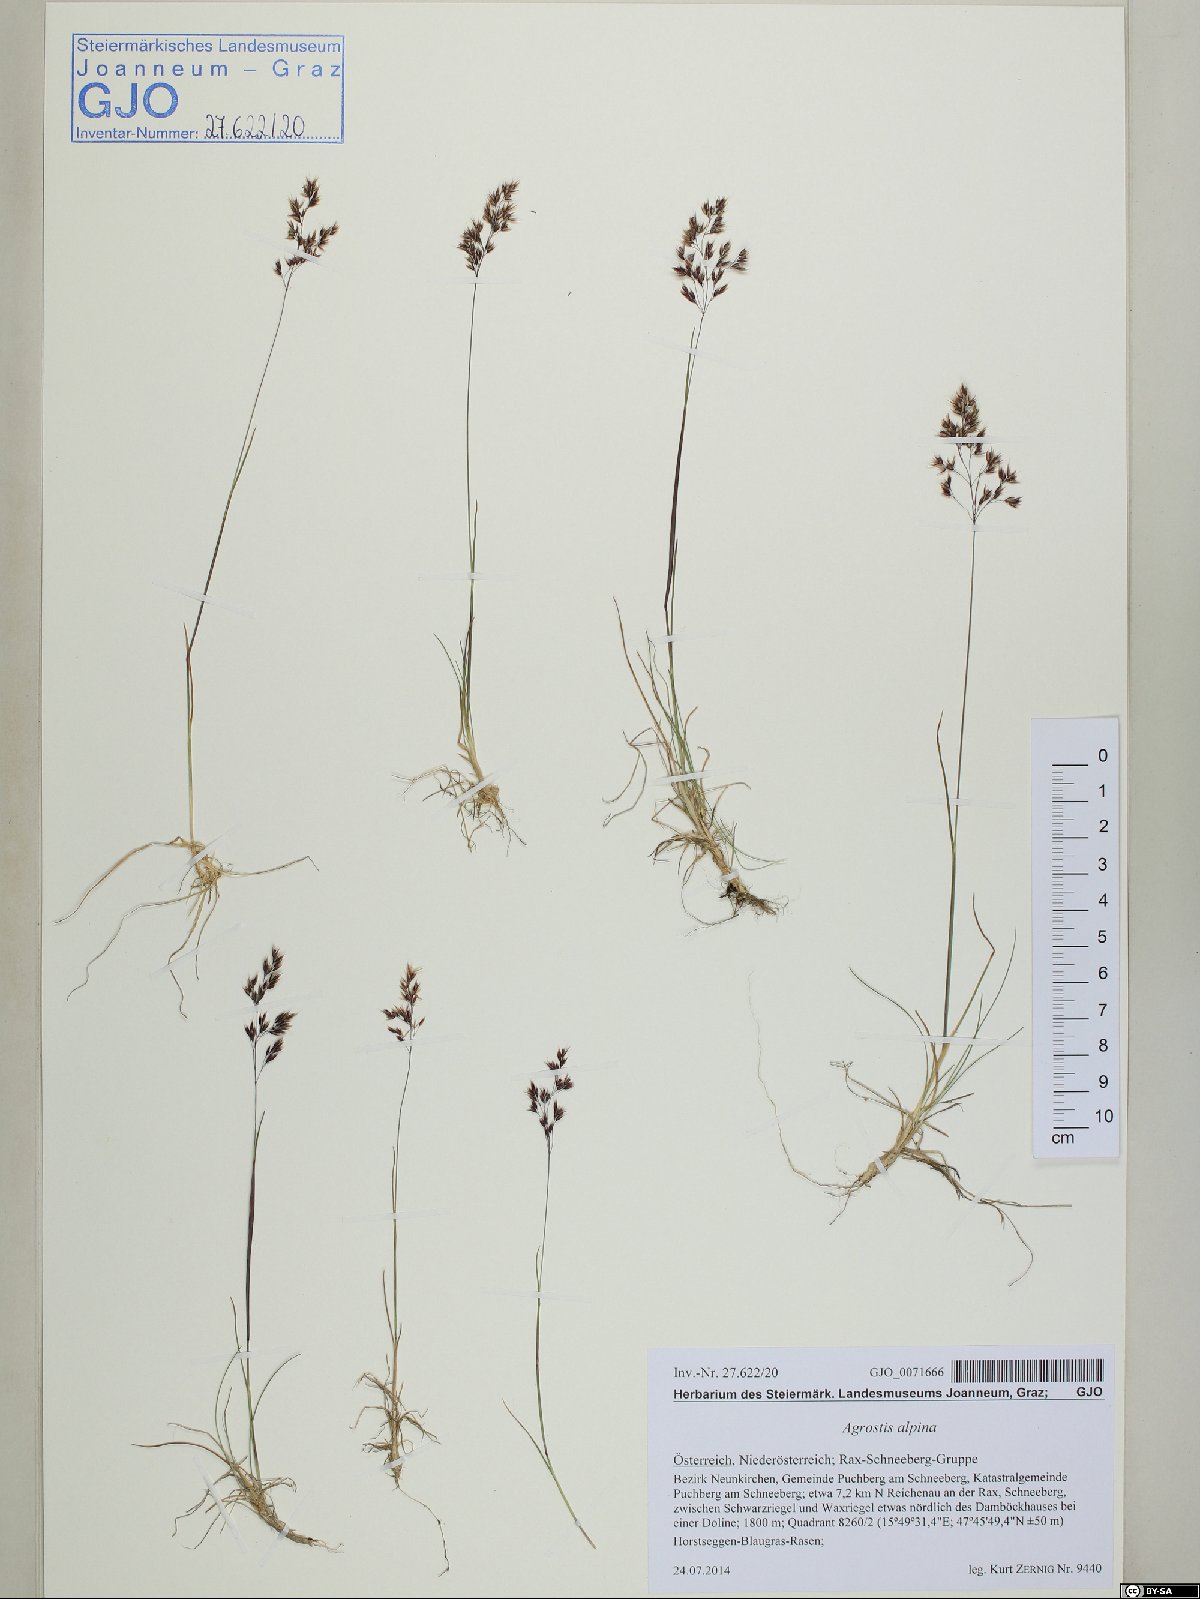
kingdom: Plantae
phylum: Tracheophyta
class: Liliopsida
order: Poales
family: Poaceae
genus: Alpagrostis
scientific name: Alpagrostis alpina
